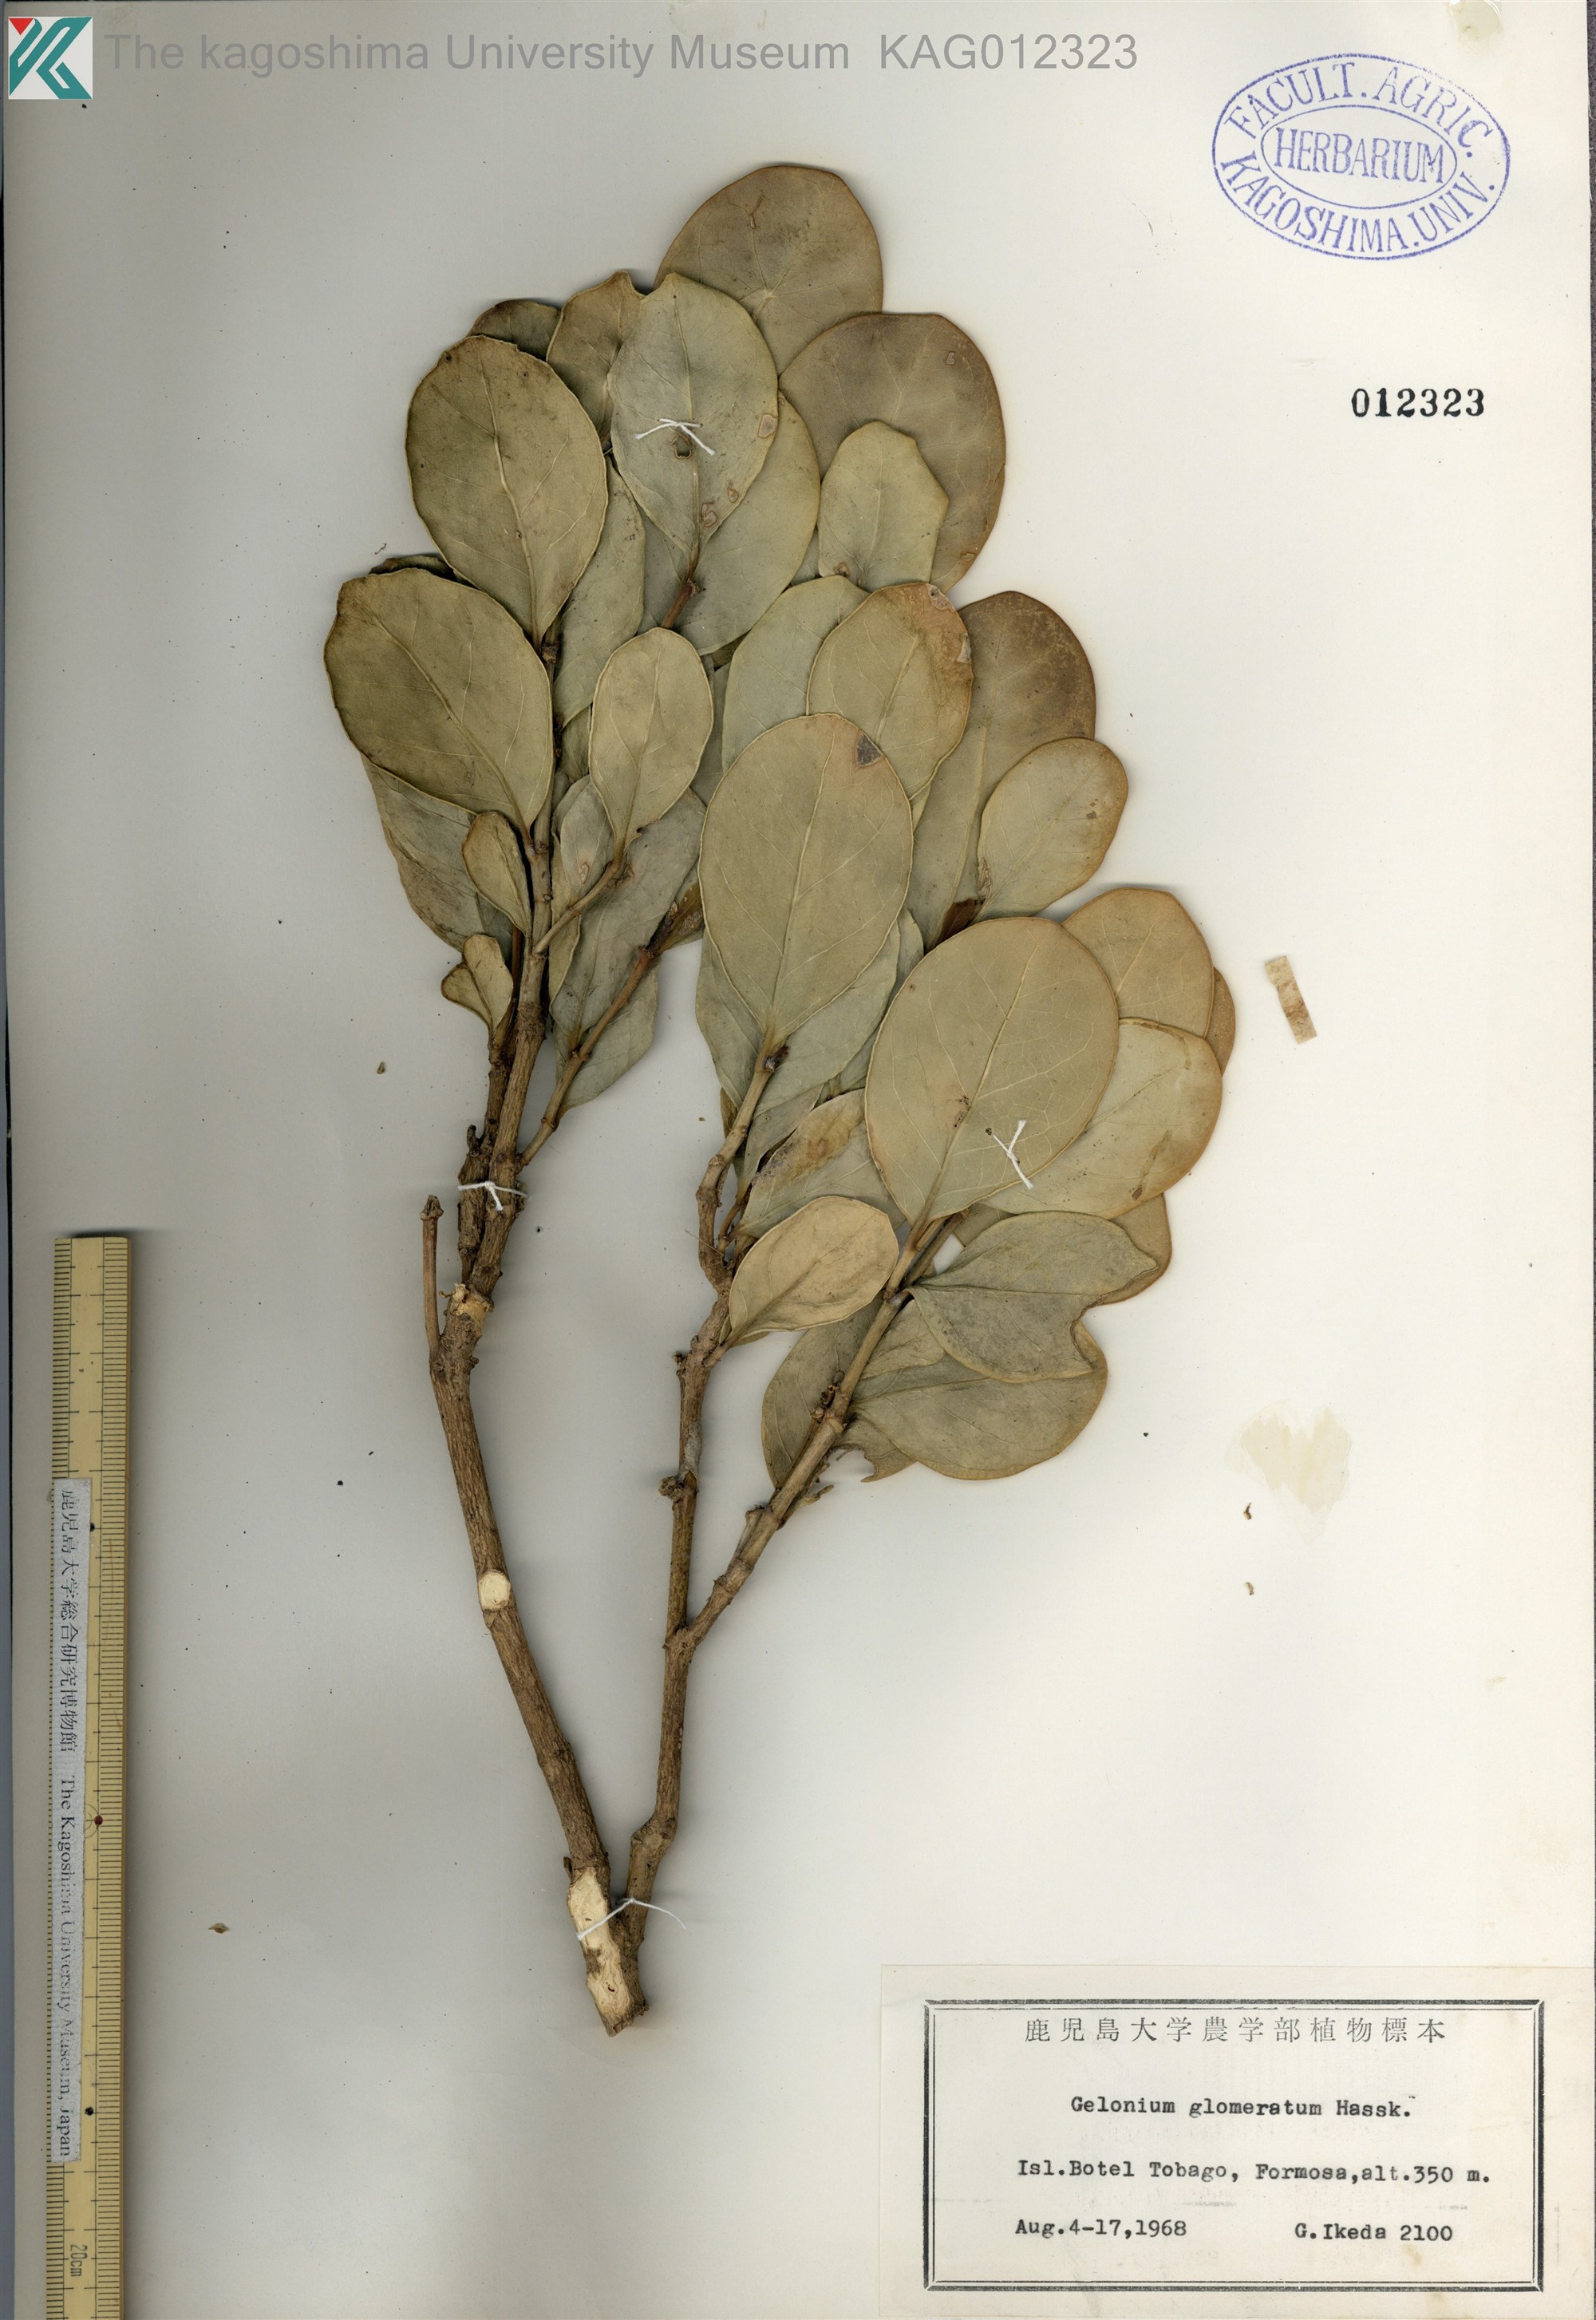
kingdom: Plantae
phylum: Tracheophyta
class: Magnoliopsida
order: Malpighiales
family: Phyllanthaceae
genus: Glochidion
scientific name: Glochidion glomerulatum
